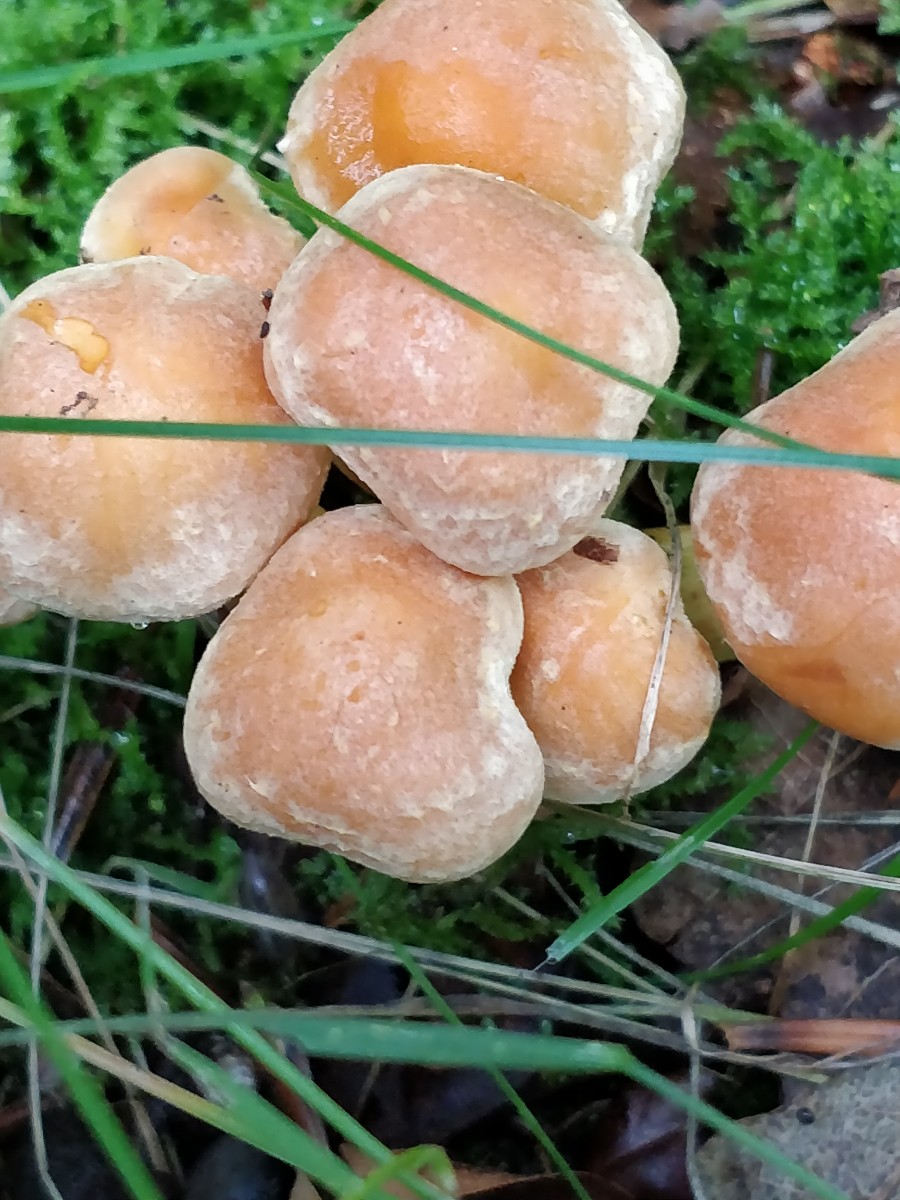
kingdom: Fungi
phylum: Basidiomycota
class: Agaricomycetes
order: Agaricales
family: Strophariaceae
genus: Hypholoma
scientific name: Hypholoma fasciculare
